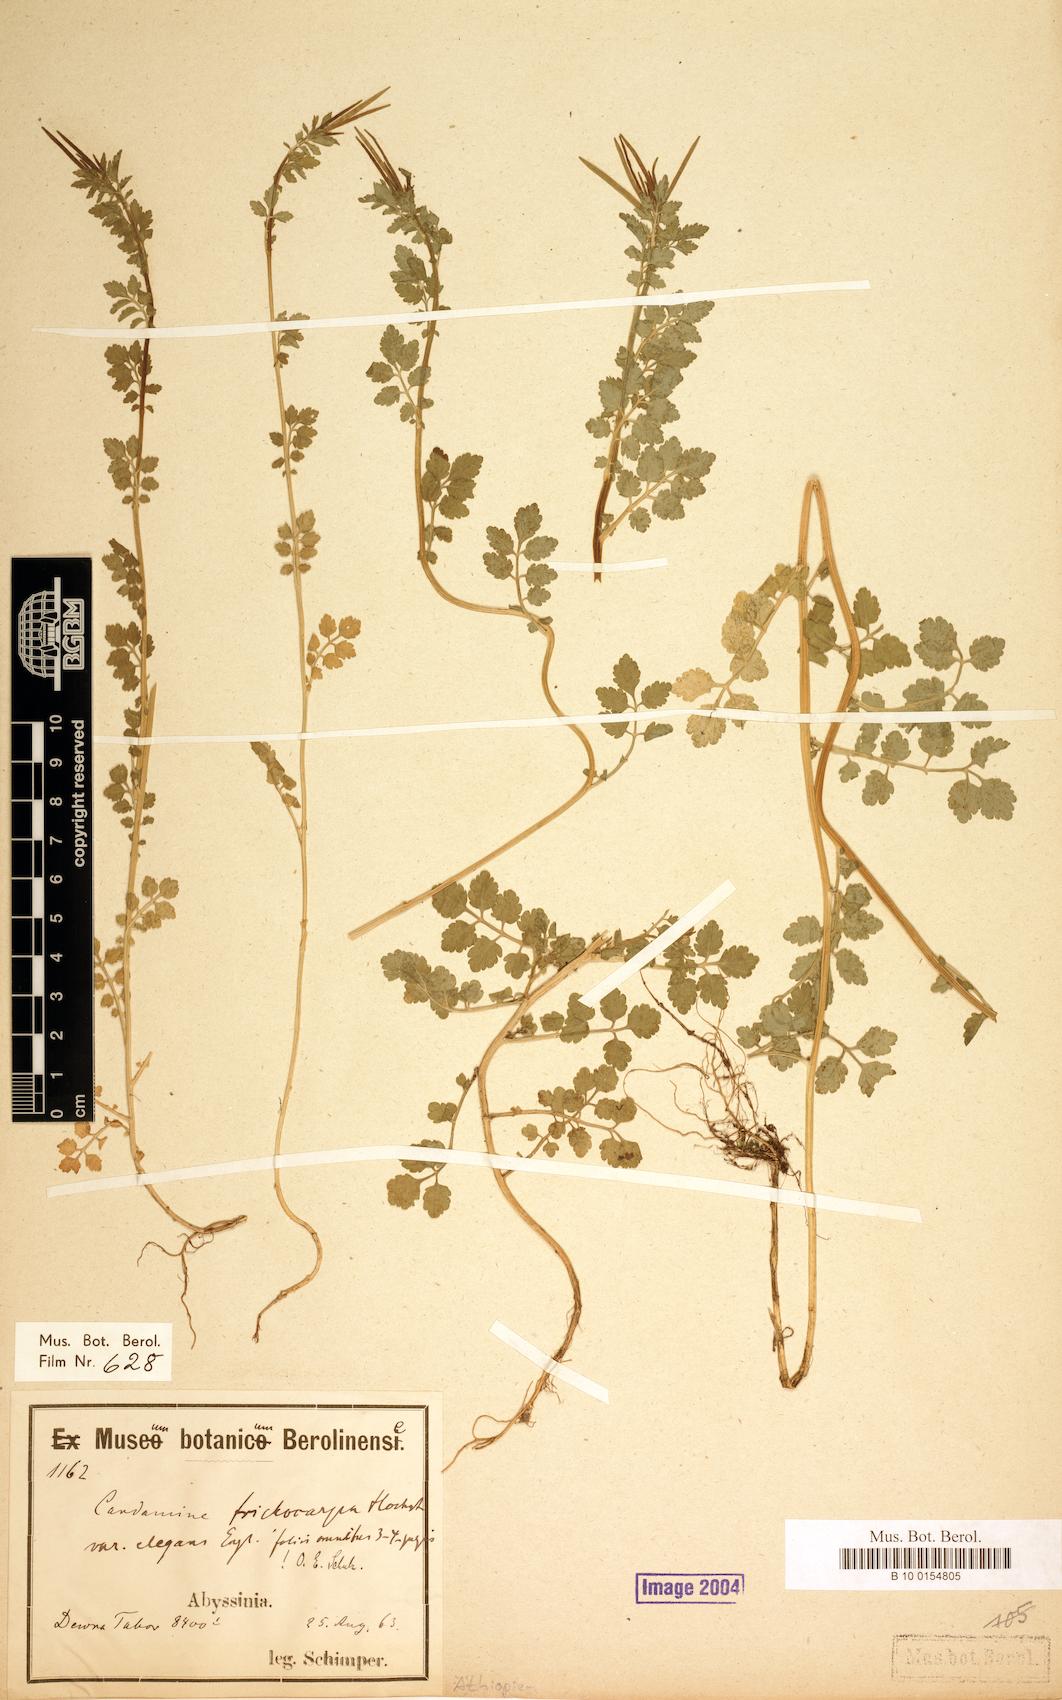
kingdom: Plantae
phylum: Tracheophyta
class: Magnoliopsida
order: Brassicales
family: Brassicaceae
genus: Cardamine
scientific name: Cardamine trichocarpa
